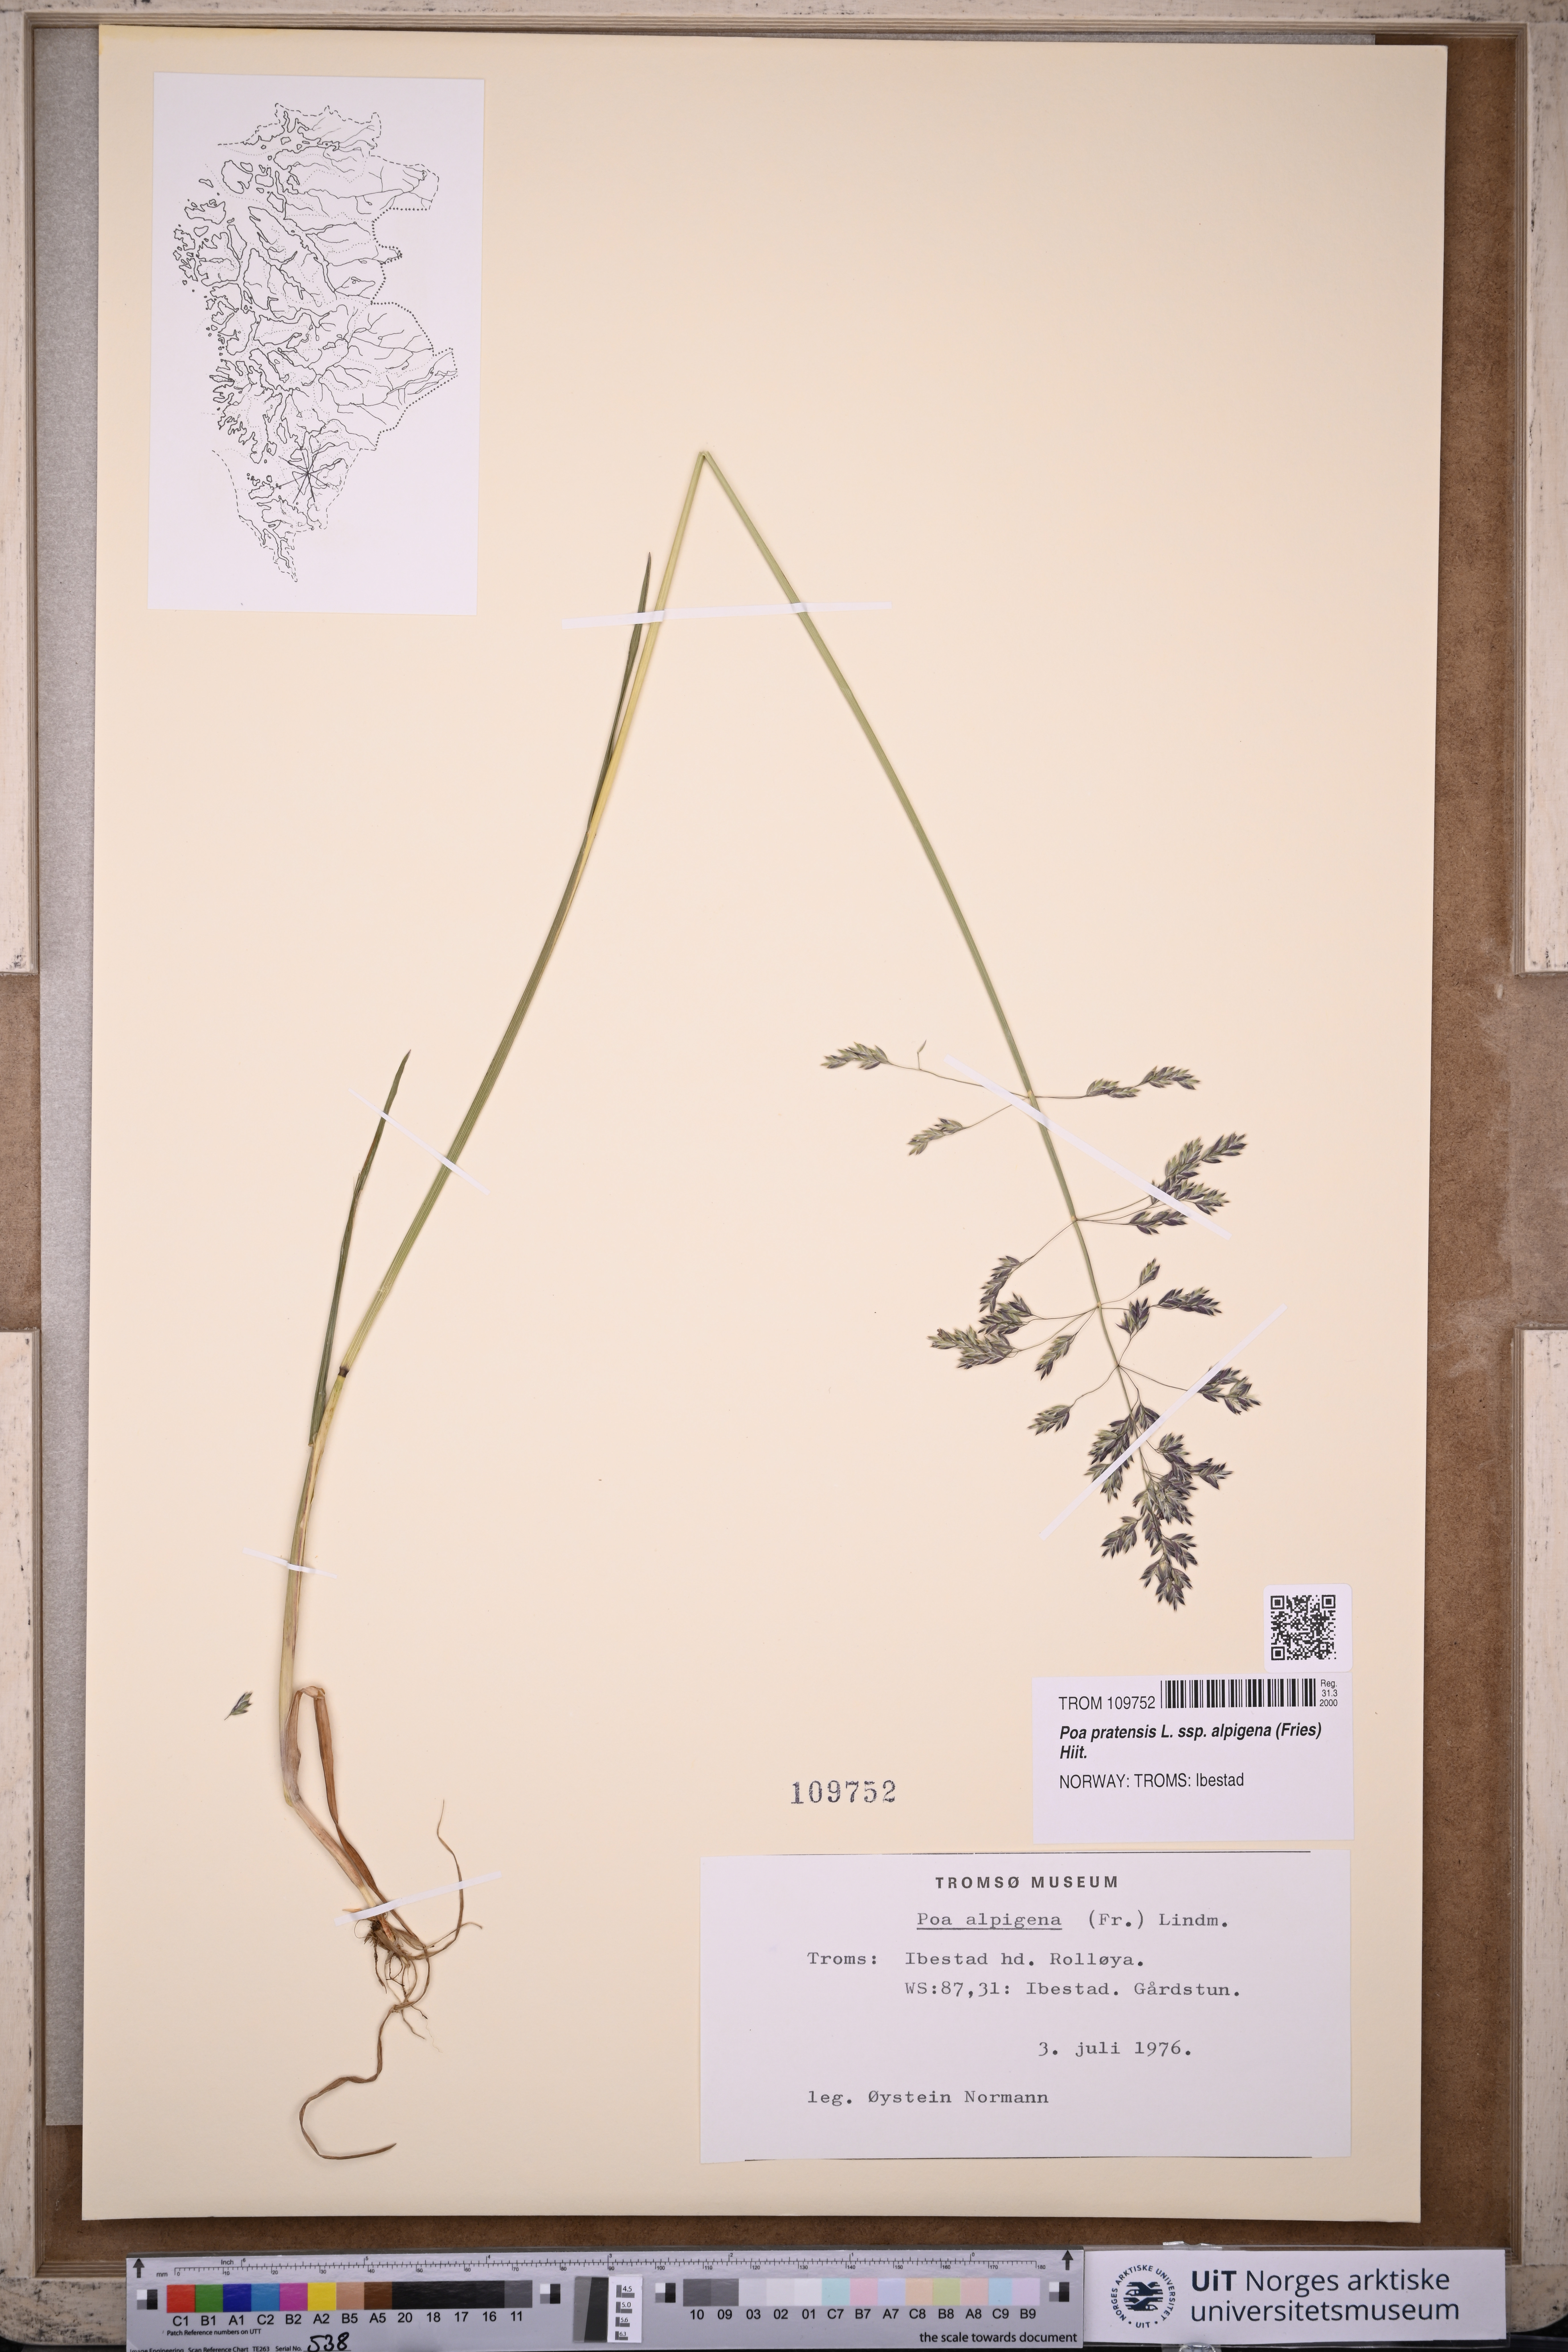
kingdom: Plantae
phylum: Tracheophyta
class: Liliopsida
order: Poales
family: Poaceae
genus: Poa
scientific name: Poa alpigena
